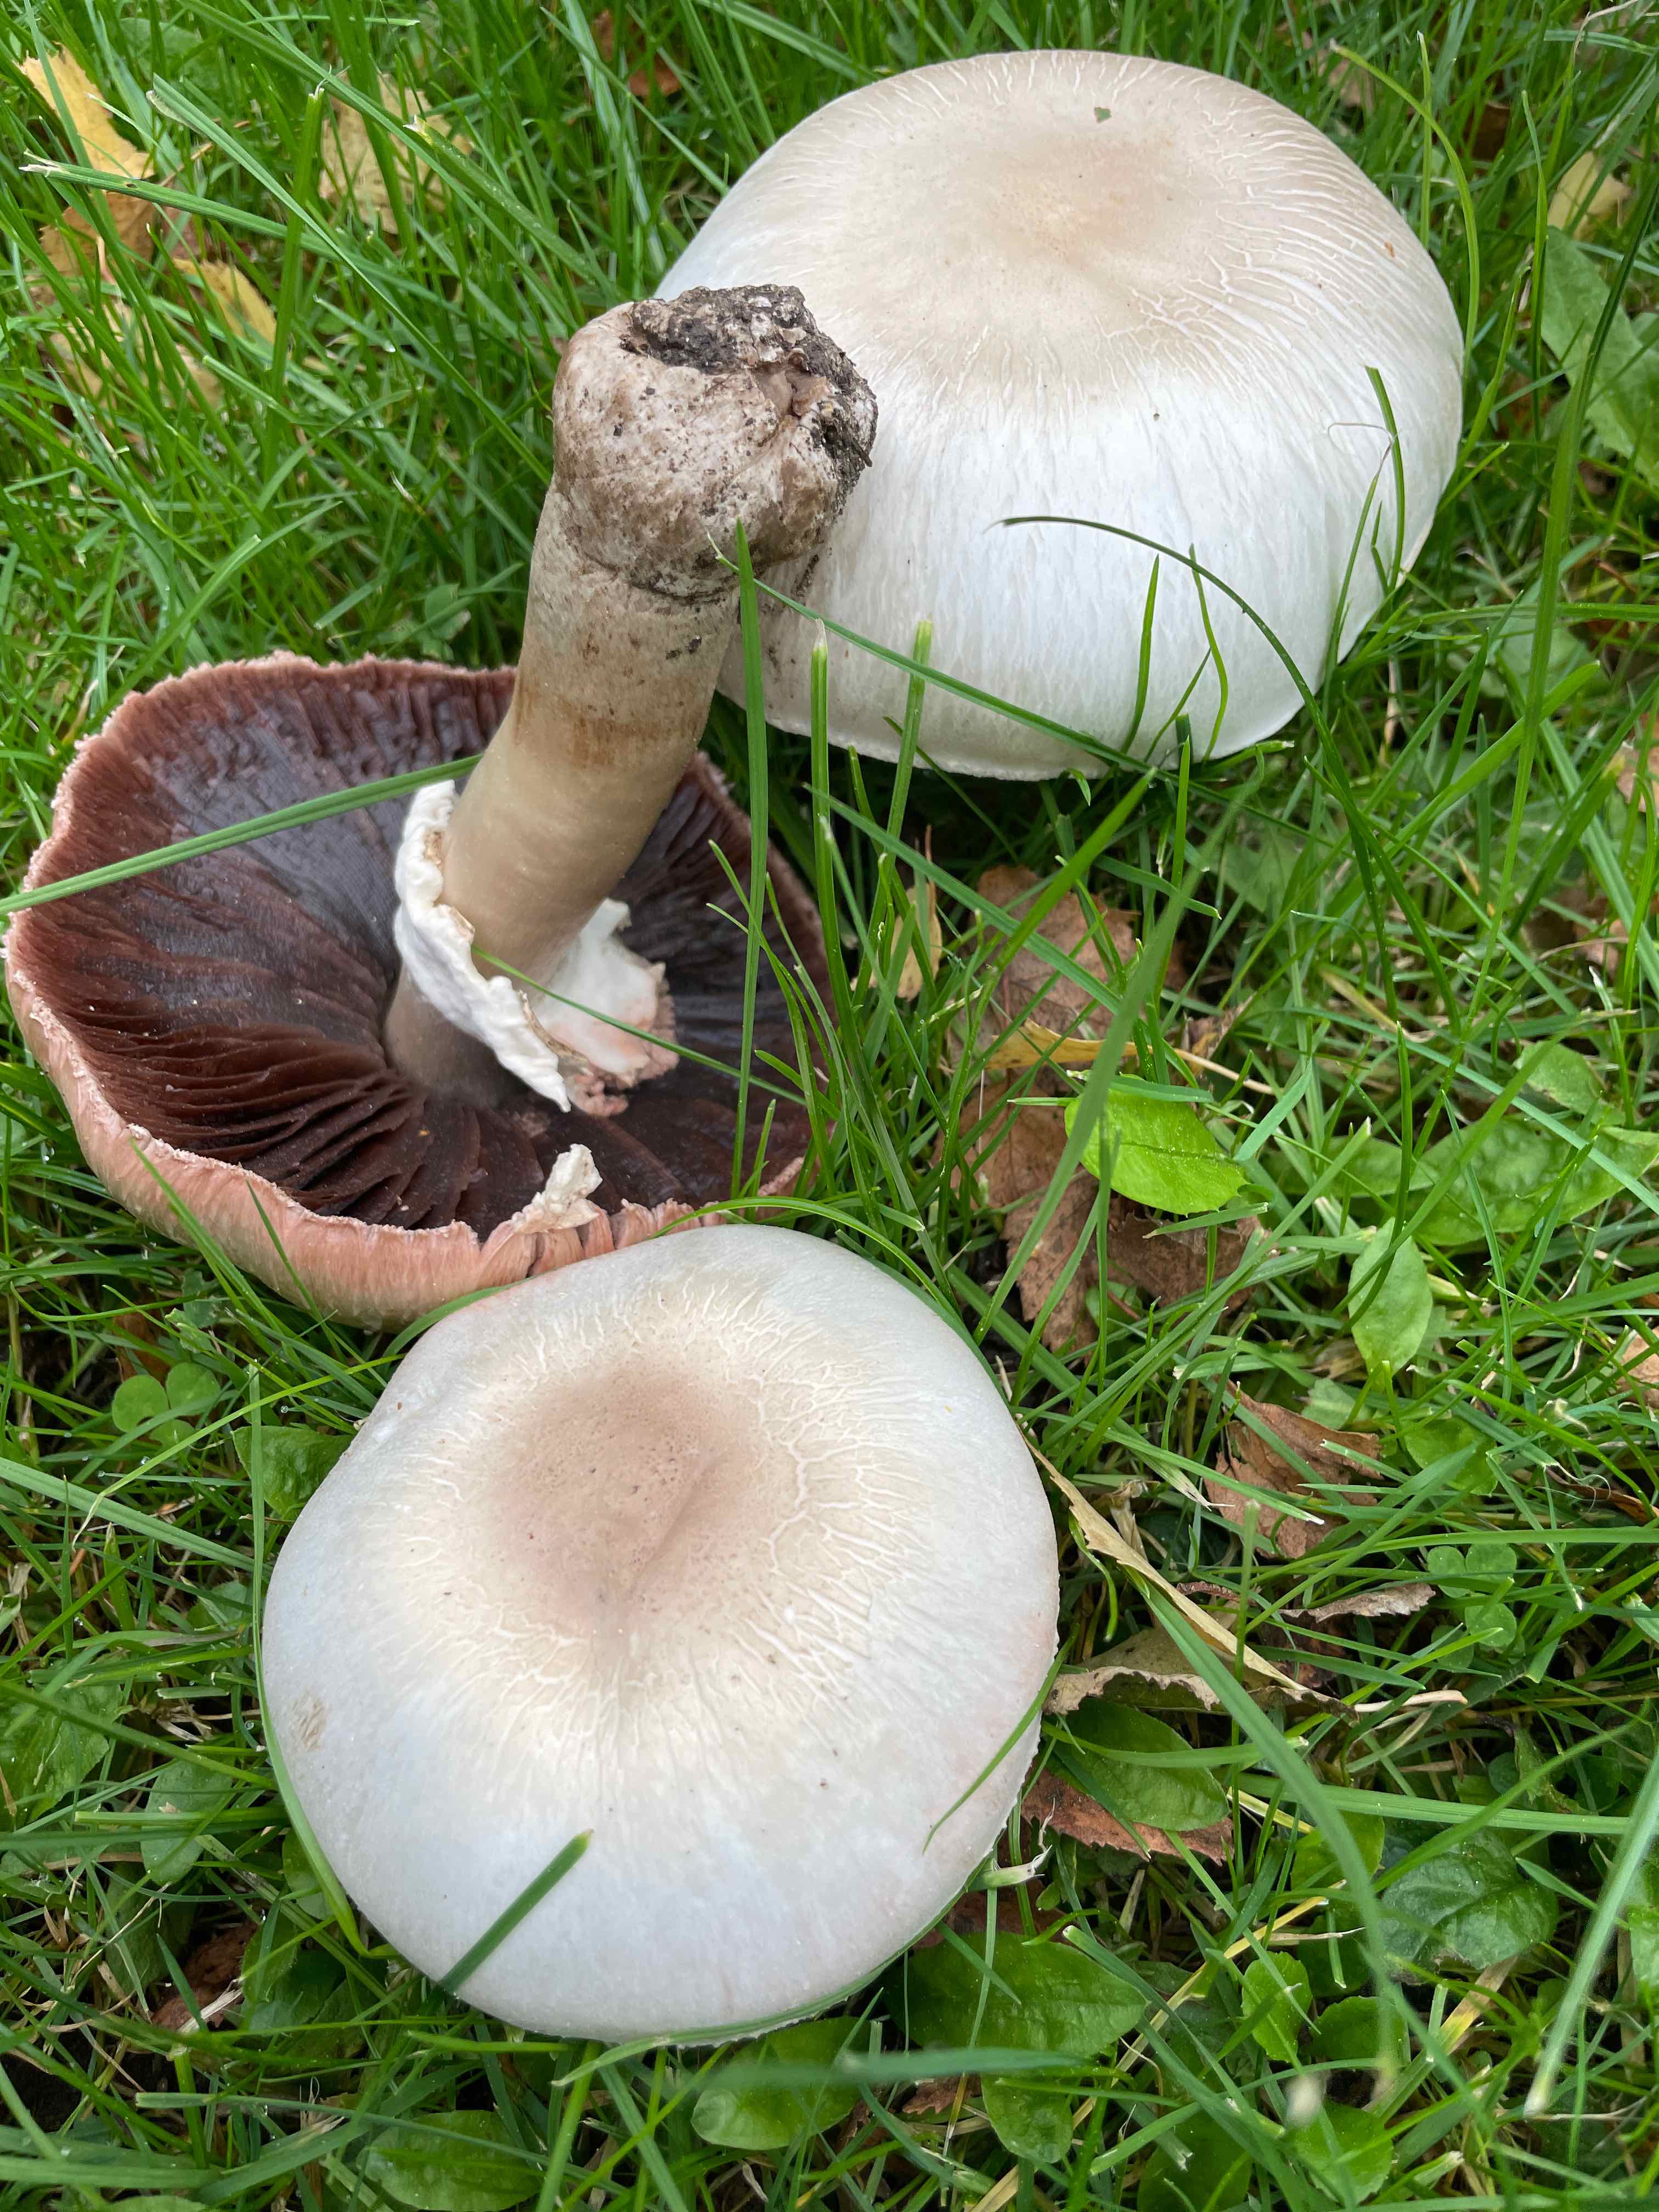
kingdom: Fungi
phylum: Basidiomycota
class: Agaricomycetes
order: Agaricales
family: Agaricaceae
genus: Agaricus
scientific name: Agaricus
